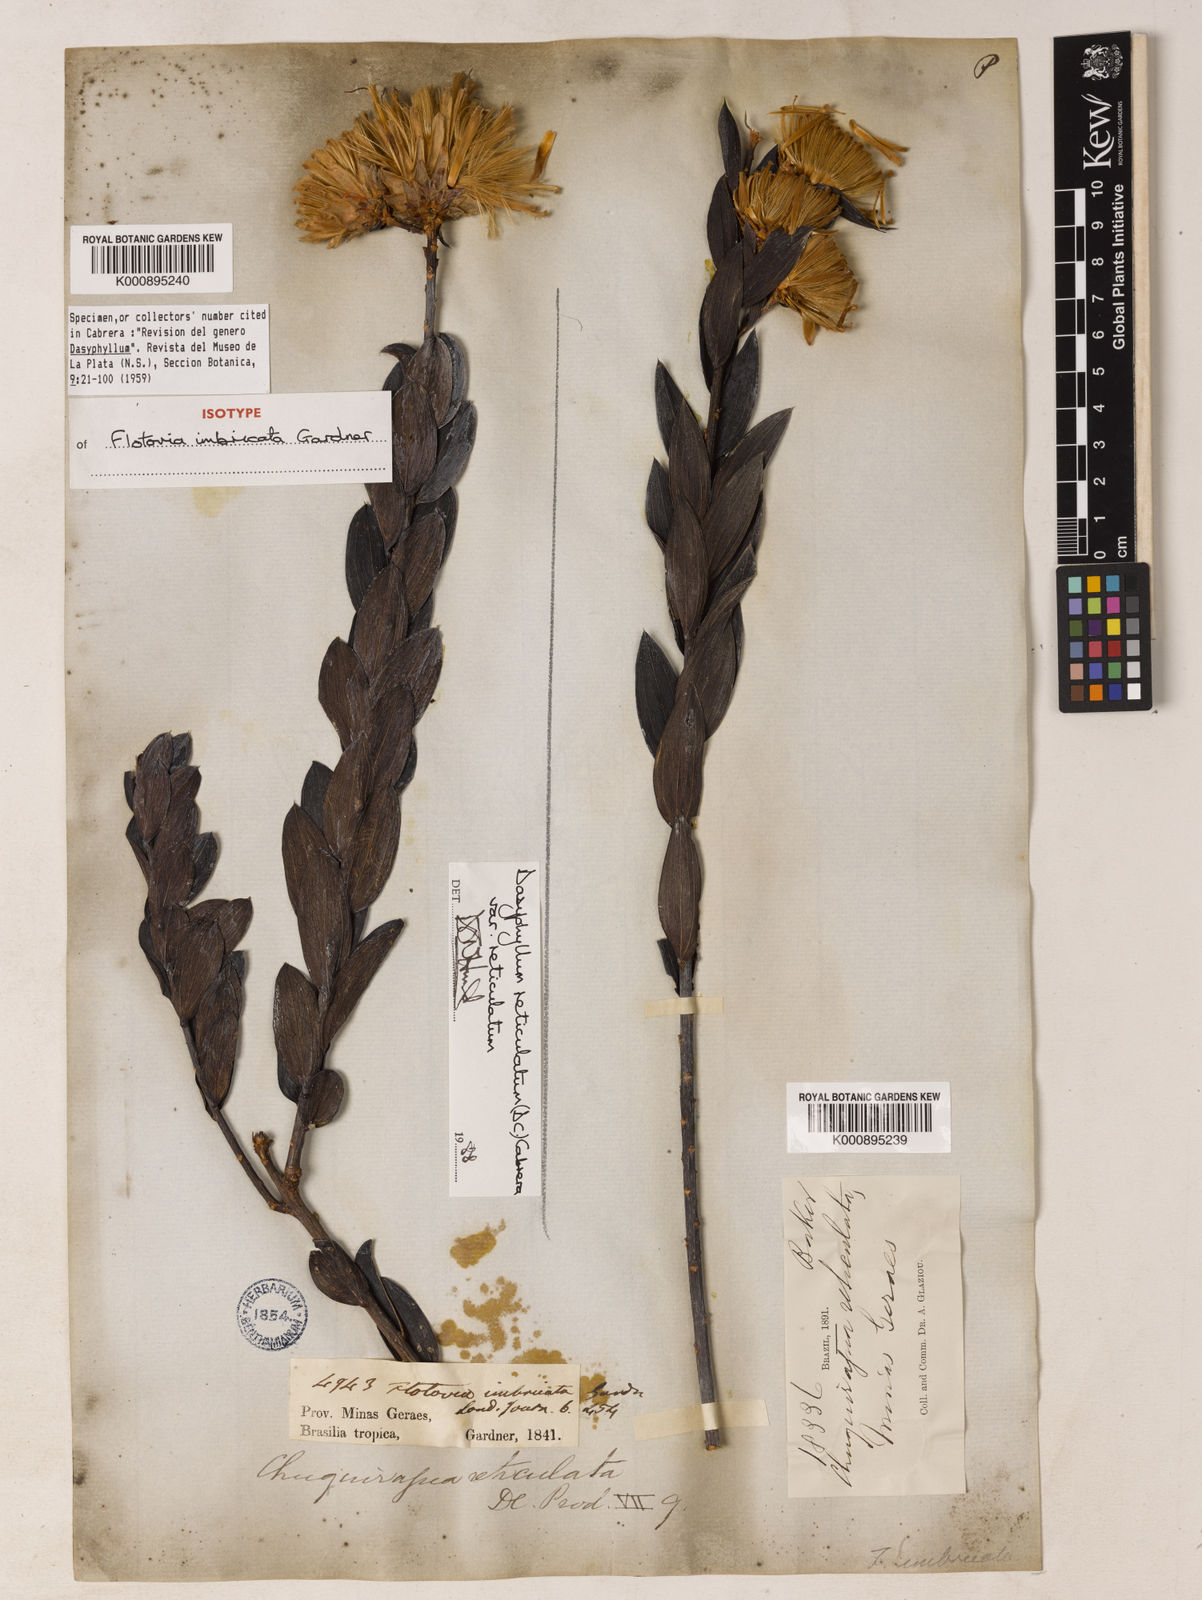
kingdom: Plantae
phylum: Tracheophyta
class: Magnoliopsida
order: Asterales
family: Asteraceae
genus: Dasyphyllum
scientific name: Dasyphyllum reticulatum
